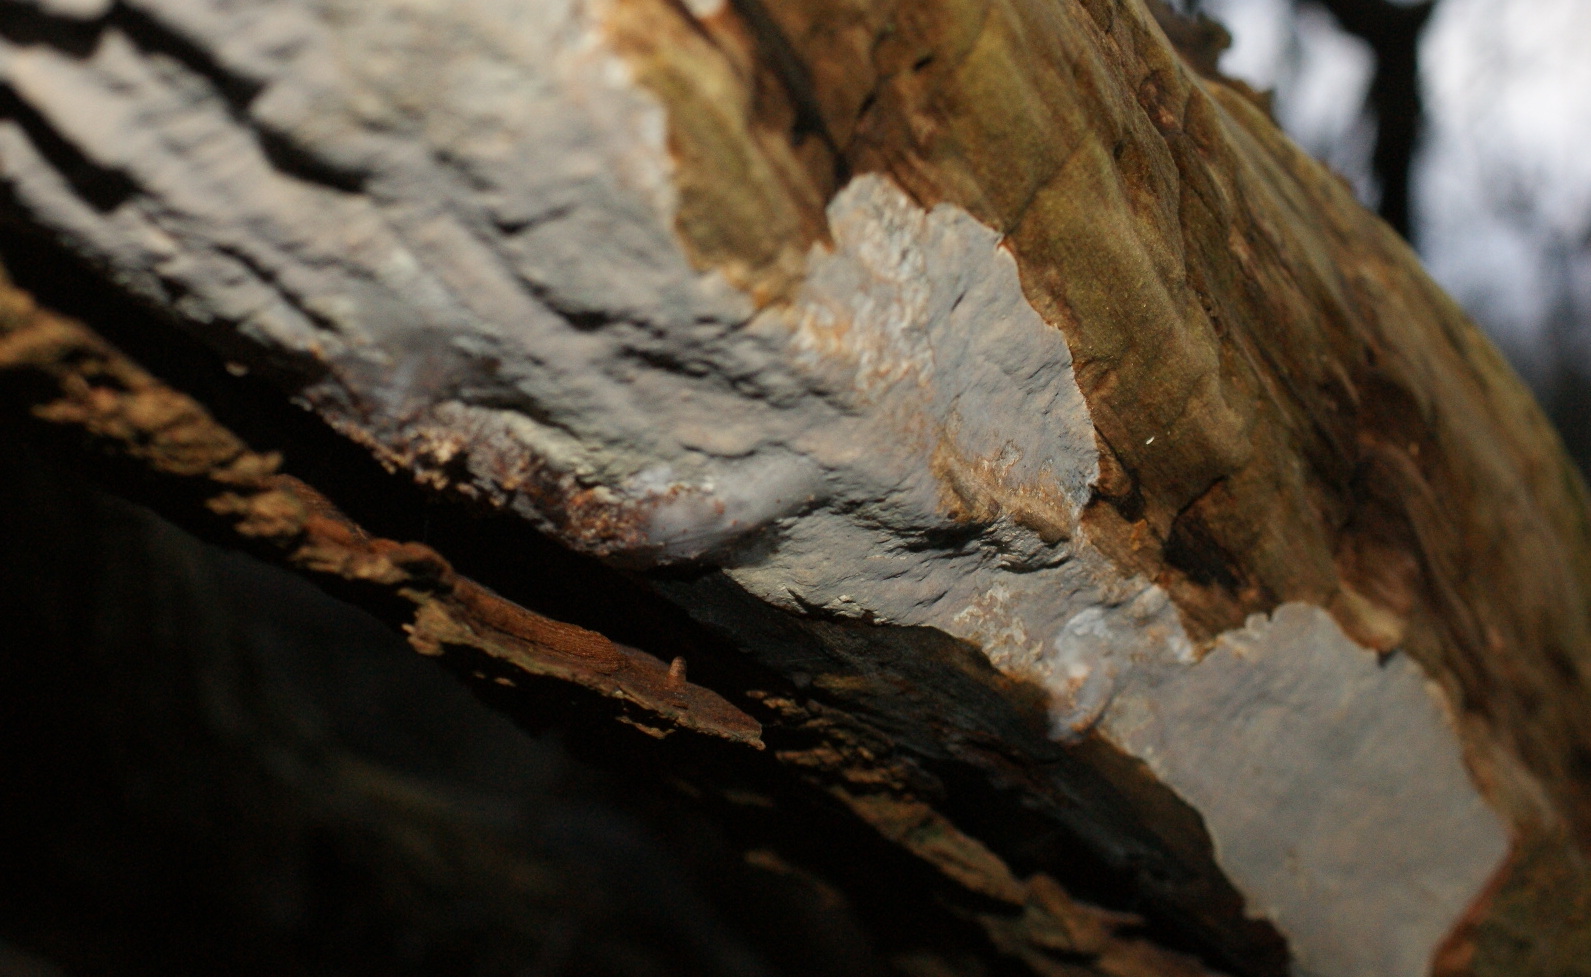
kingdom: Fungi
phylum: Basidiomycota
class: Agaricomycetes
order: Russulales
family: Peniophoraceae
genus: Scytinostroma
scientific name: Scytinostroma hemidichophyticum
